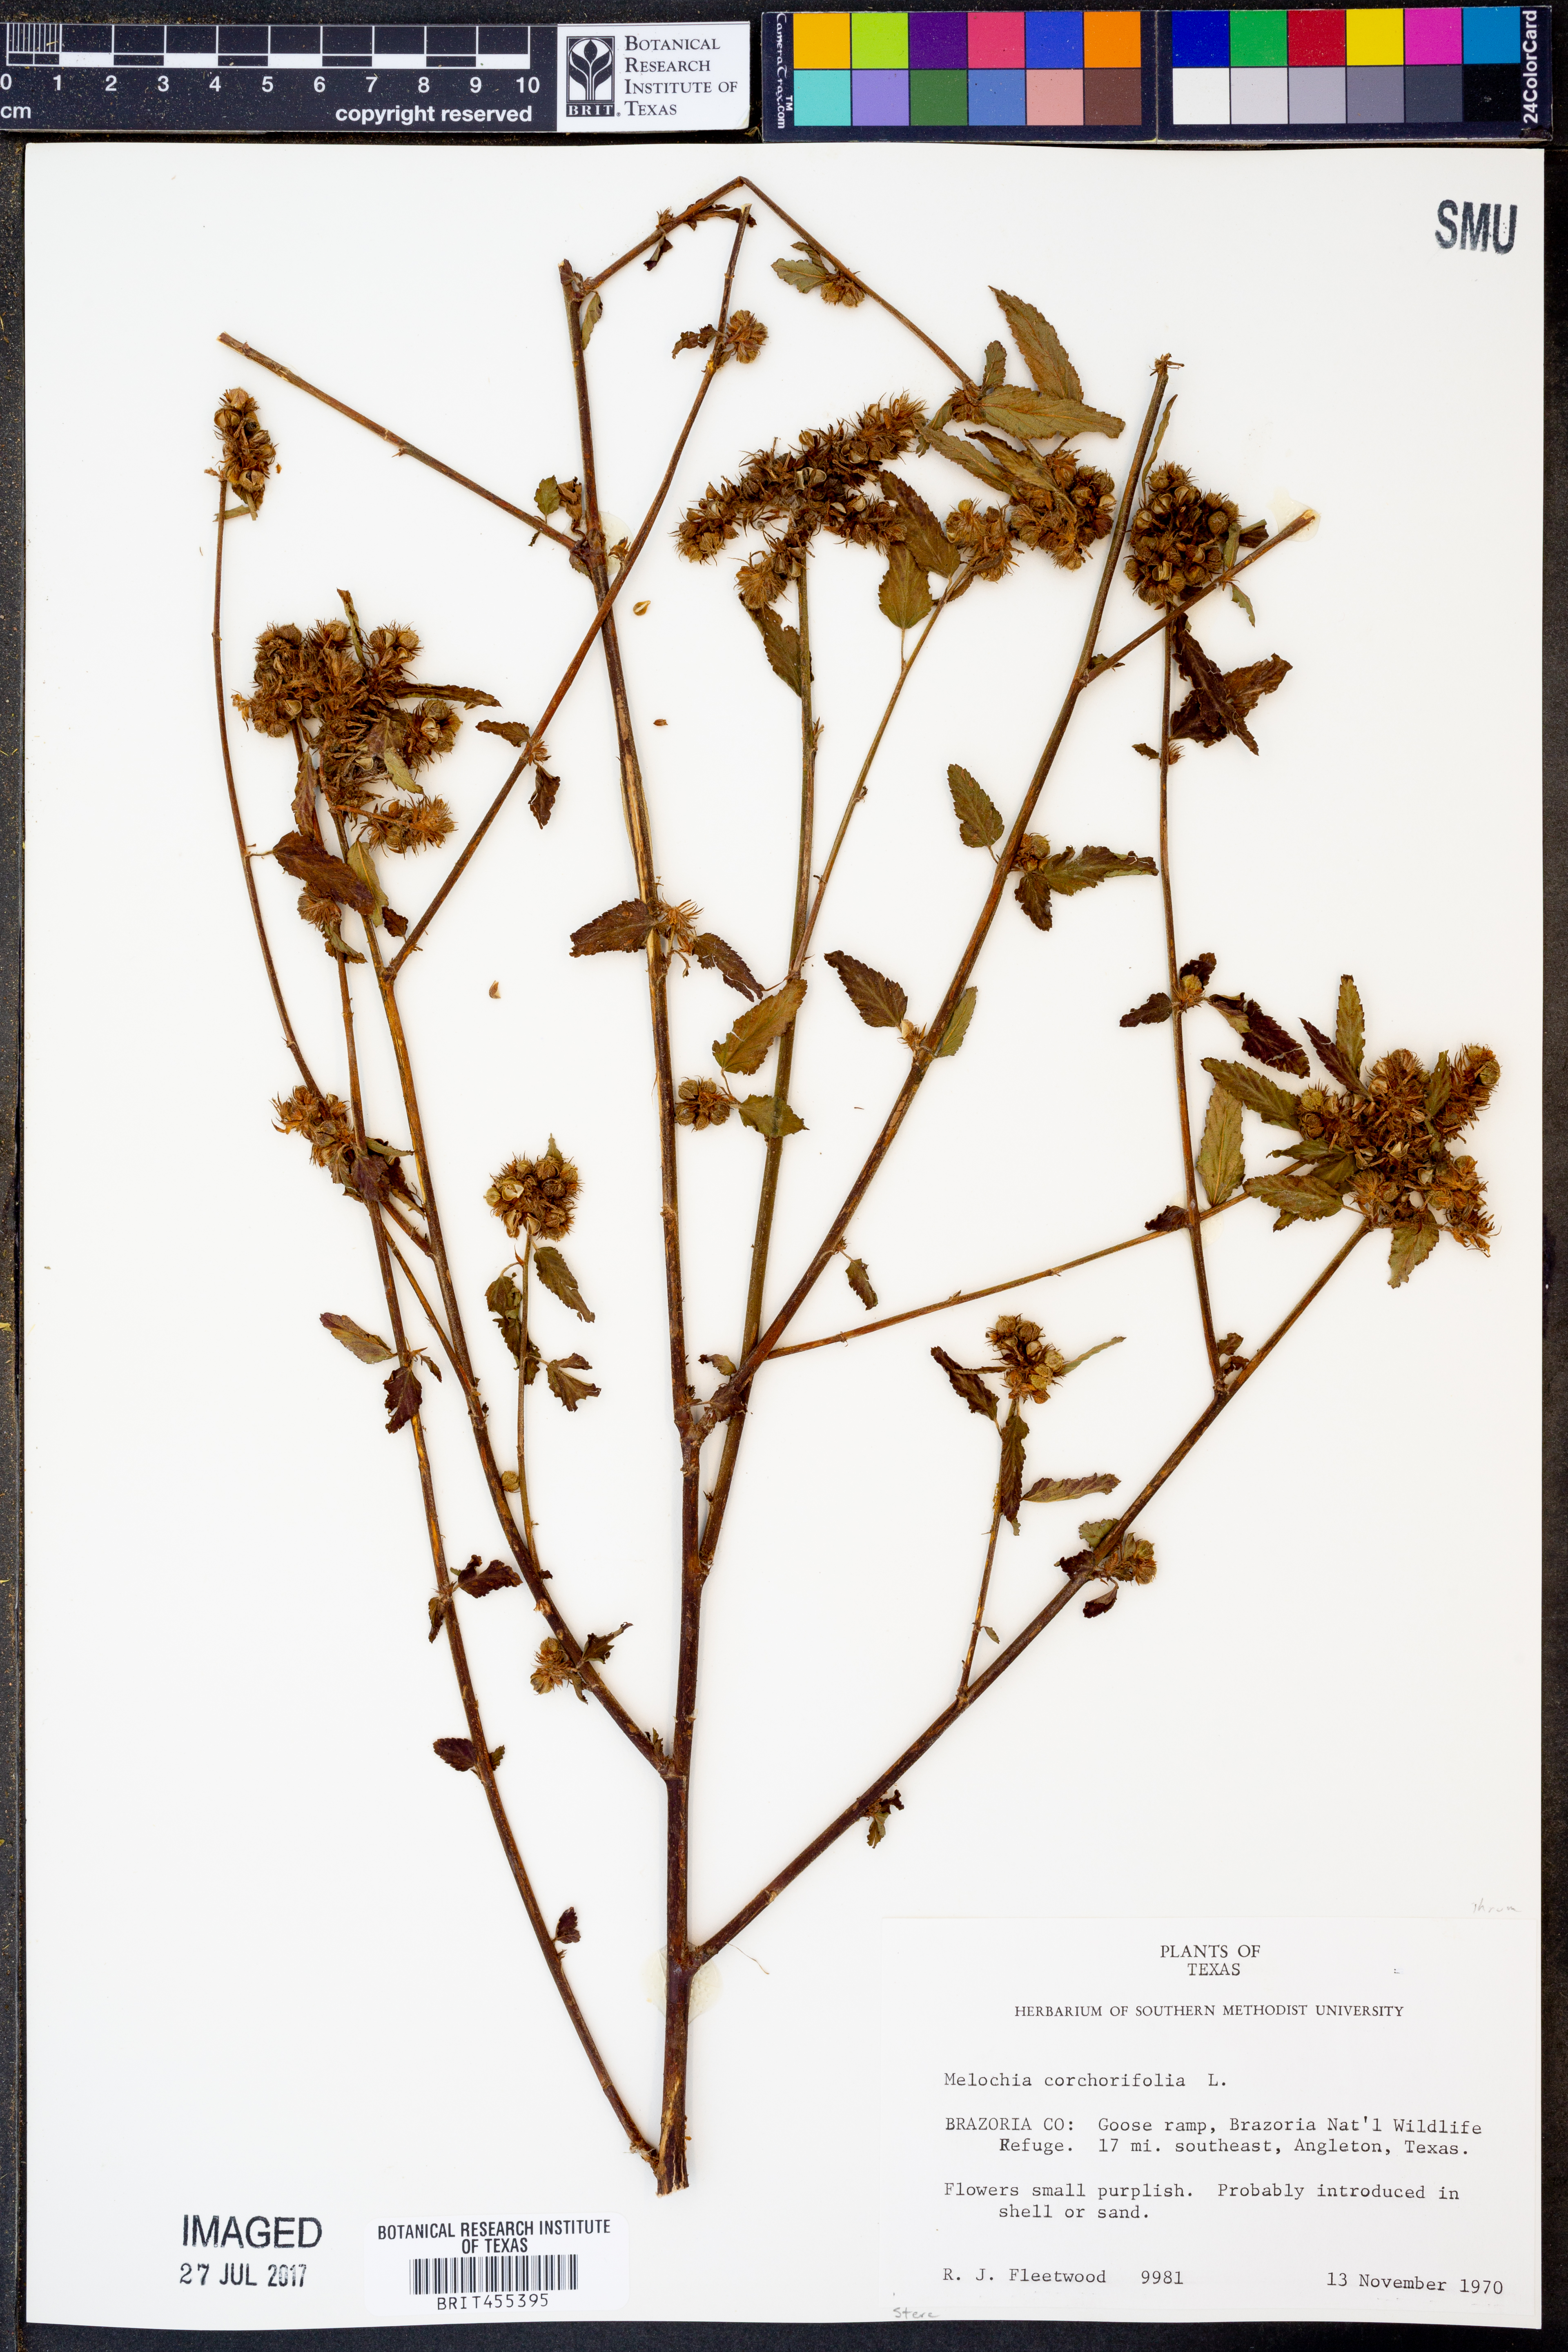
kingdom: Plantae
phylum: Tracheophyta
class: Magnoliopsida
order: Malvales
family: Malvaceae
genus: Melochia
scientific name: Melochia corchorifolia
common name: Chocolateweed
